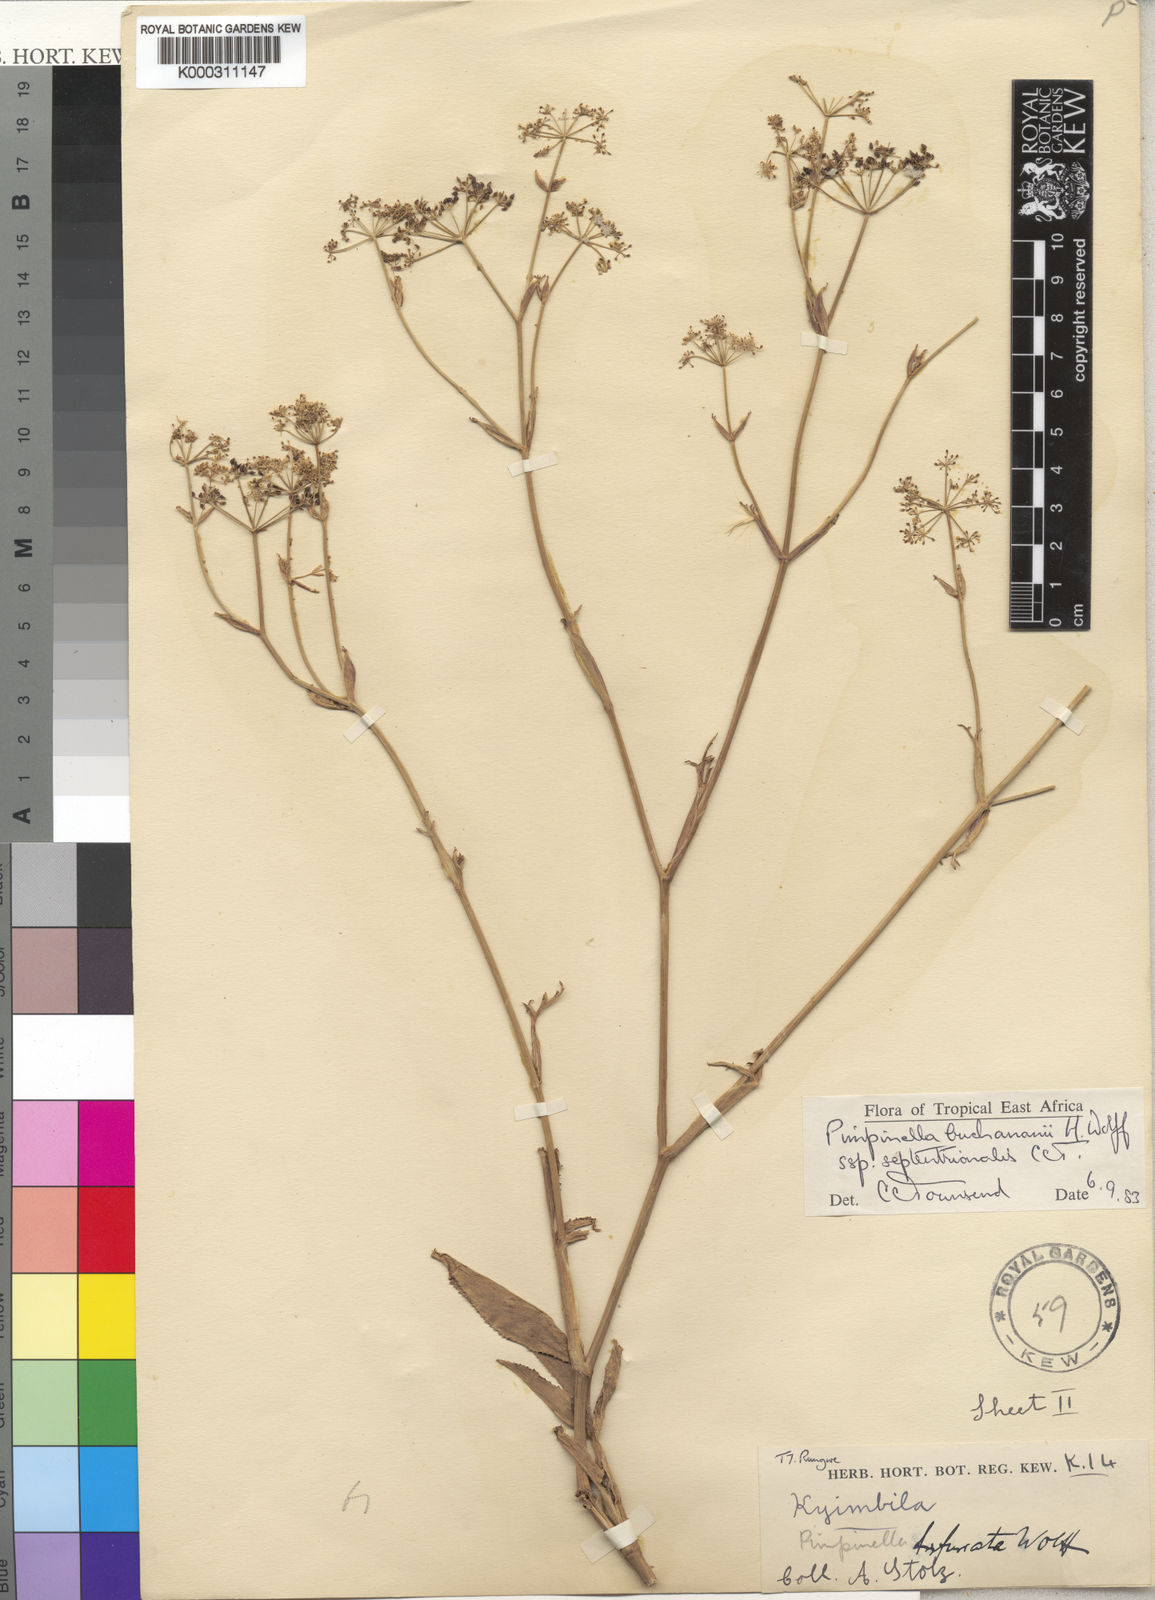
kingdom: Plantae
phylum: Tracheophyta
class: Magnoliopsida
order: Apiales
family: Apiaceae
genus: Pimpinella
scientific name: Pimpinella buchananii
